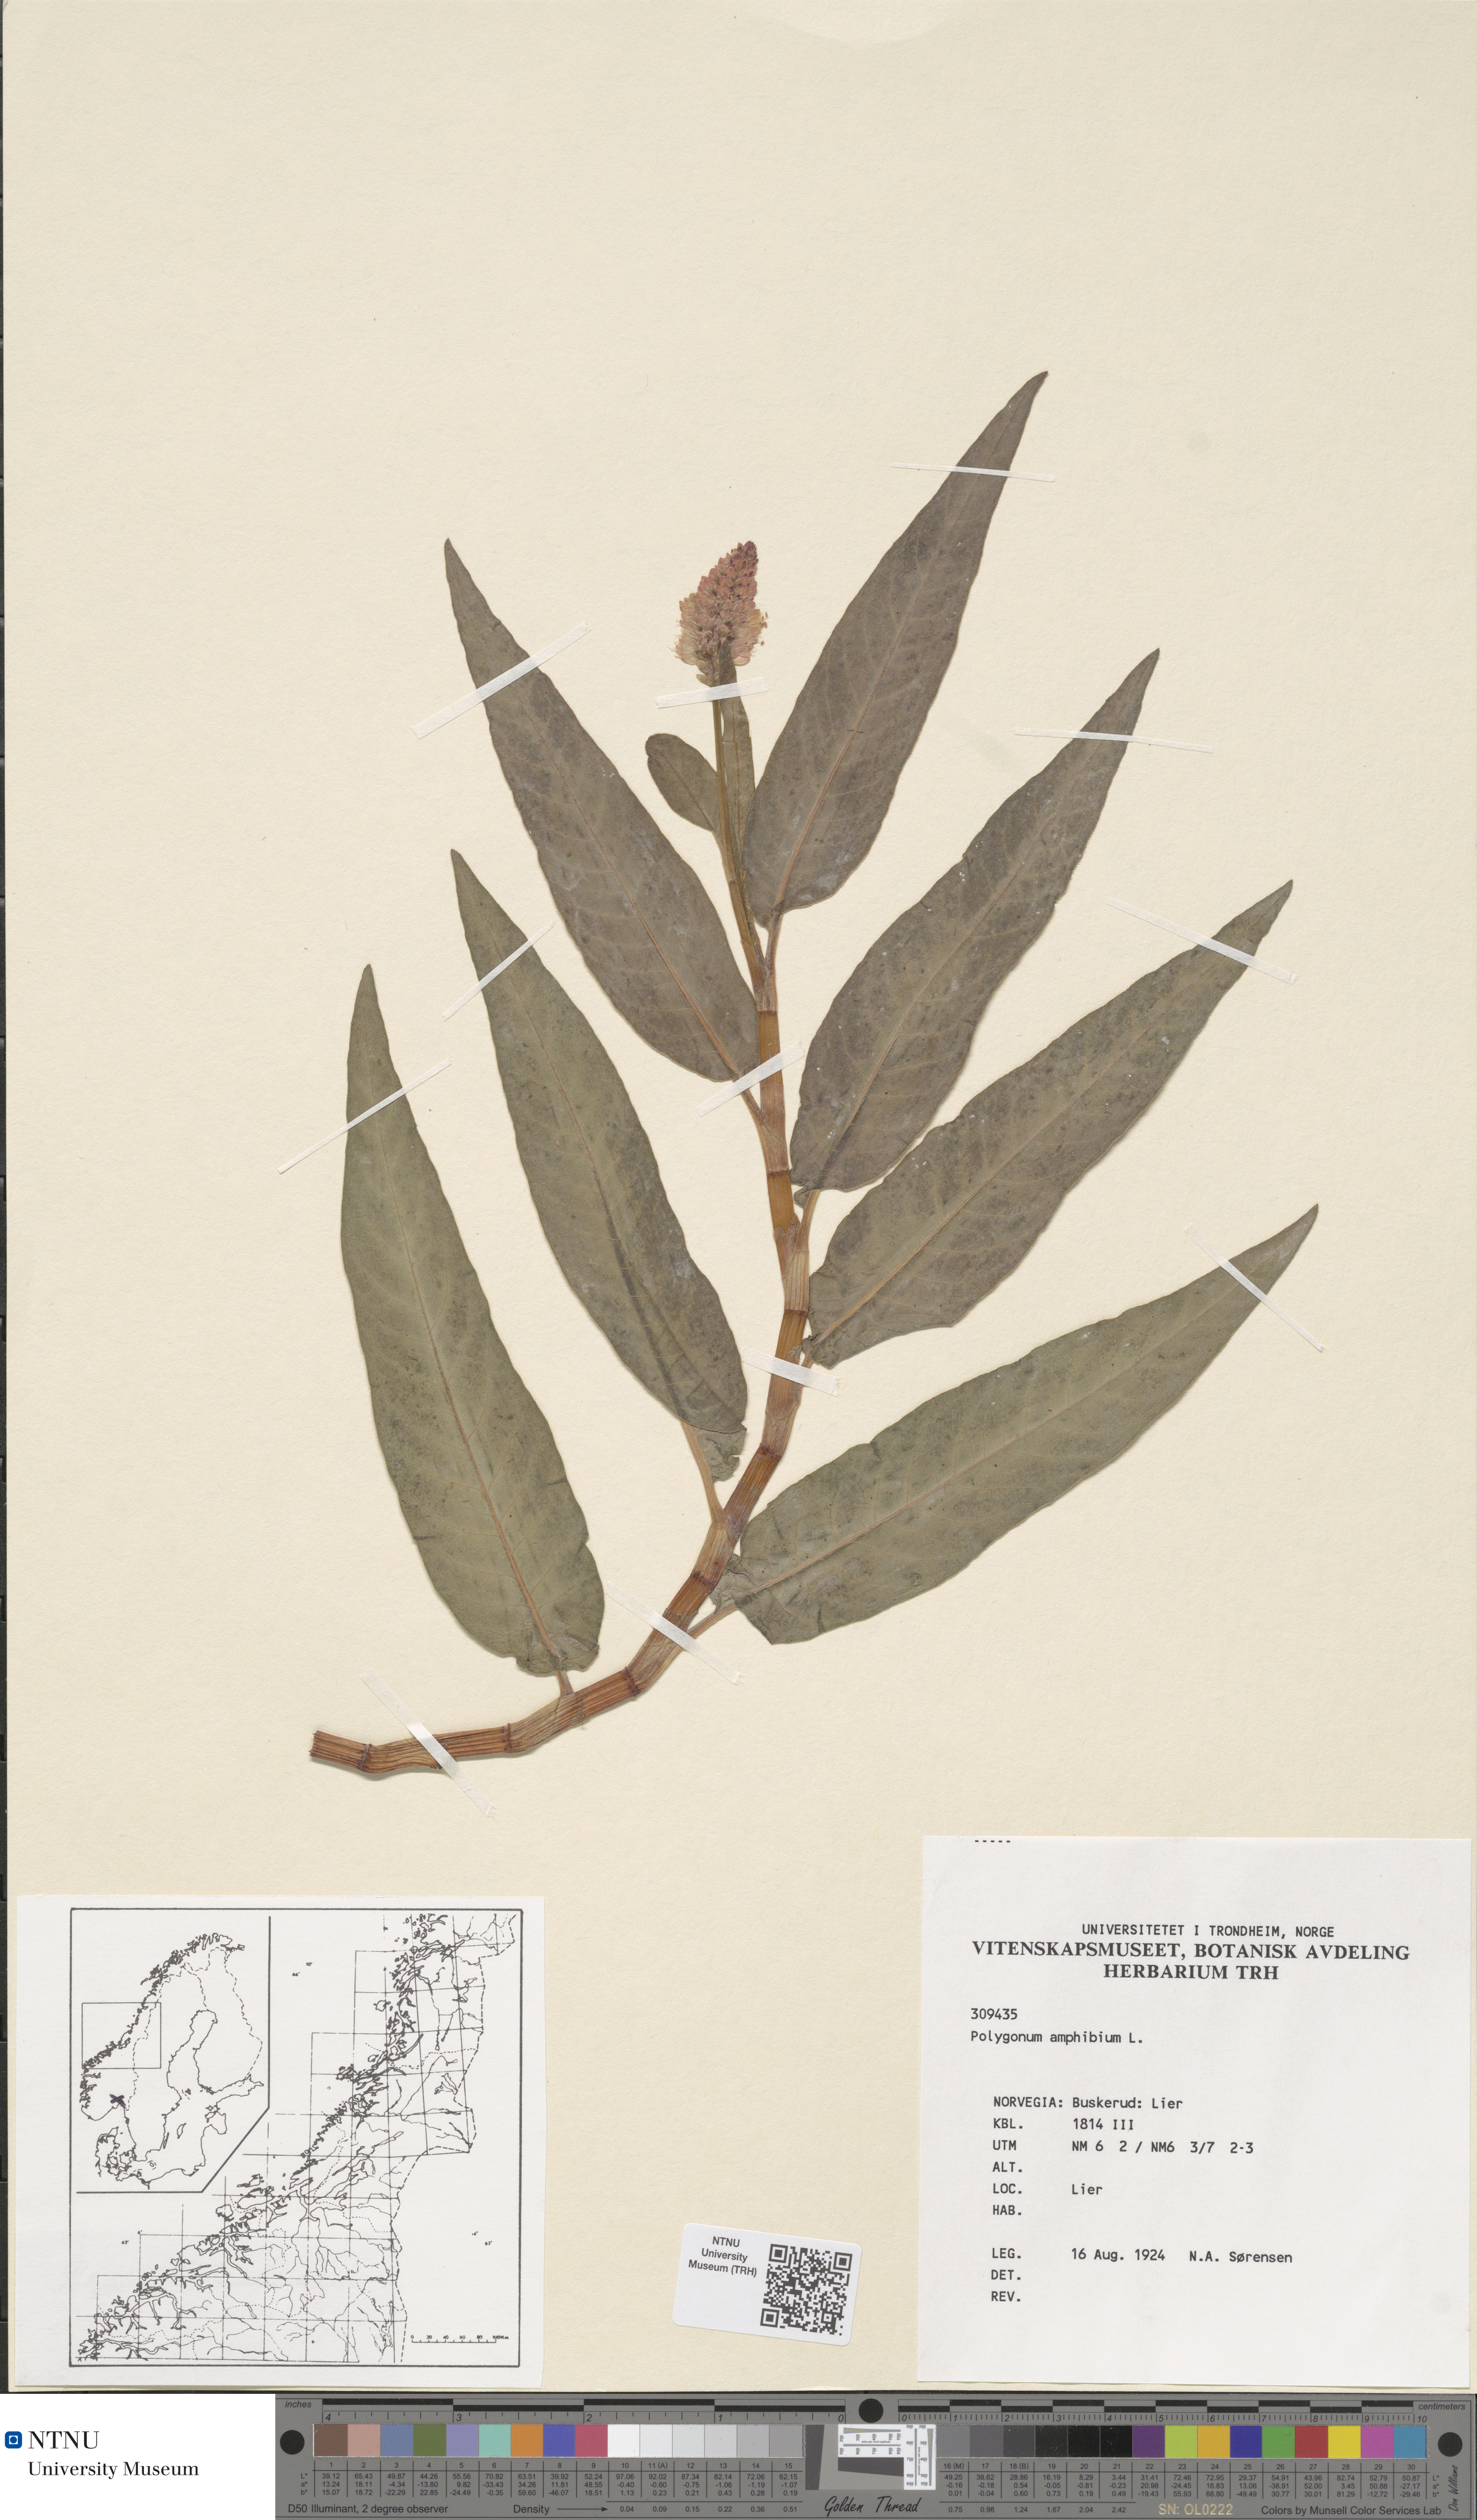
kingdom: Plantae
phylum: Tracheophyta
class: Magnoliopsida
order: Caryophyllales
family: Polygonaceae
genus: Persicaria
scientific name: Persicaria amphibia
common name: Amphibious bistort
